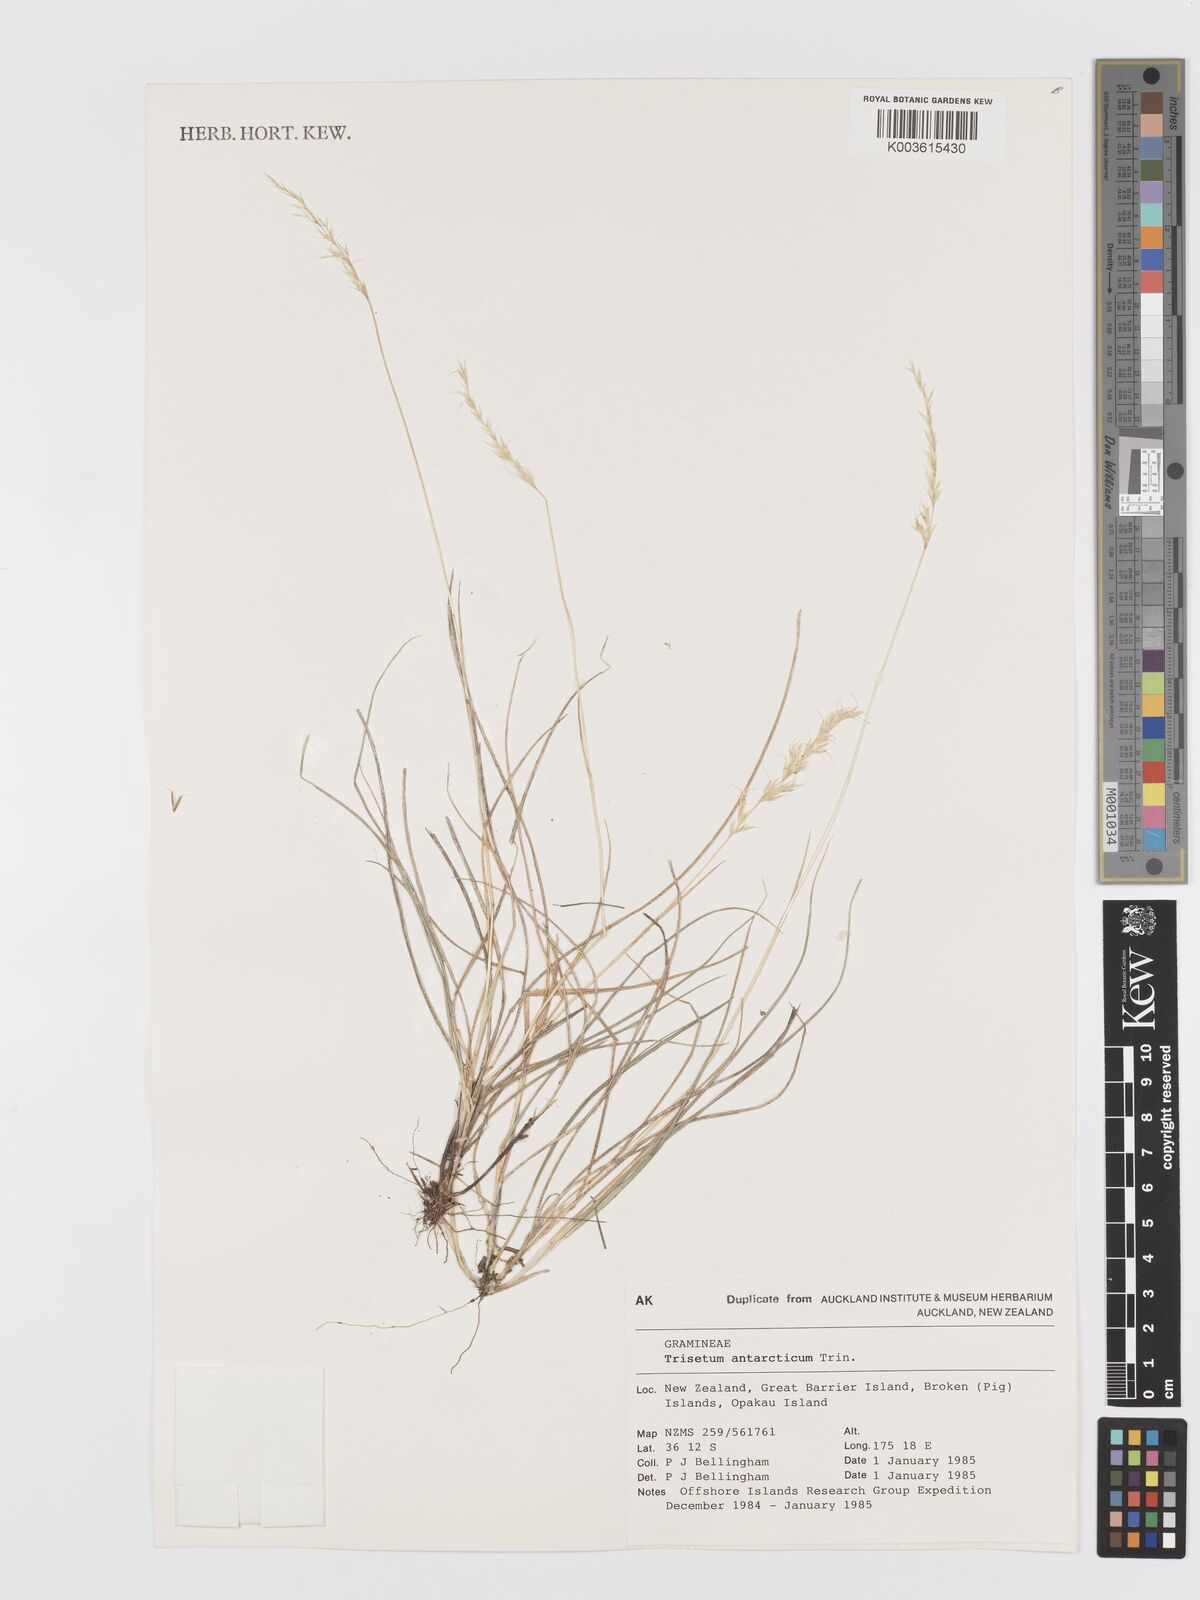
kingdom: Plantae
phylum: Tracheophyta
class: Liliopsida
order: Poales
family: Poaceae
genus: Koeleria
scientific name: Koeleria antarctica
